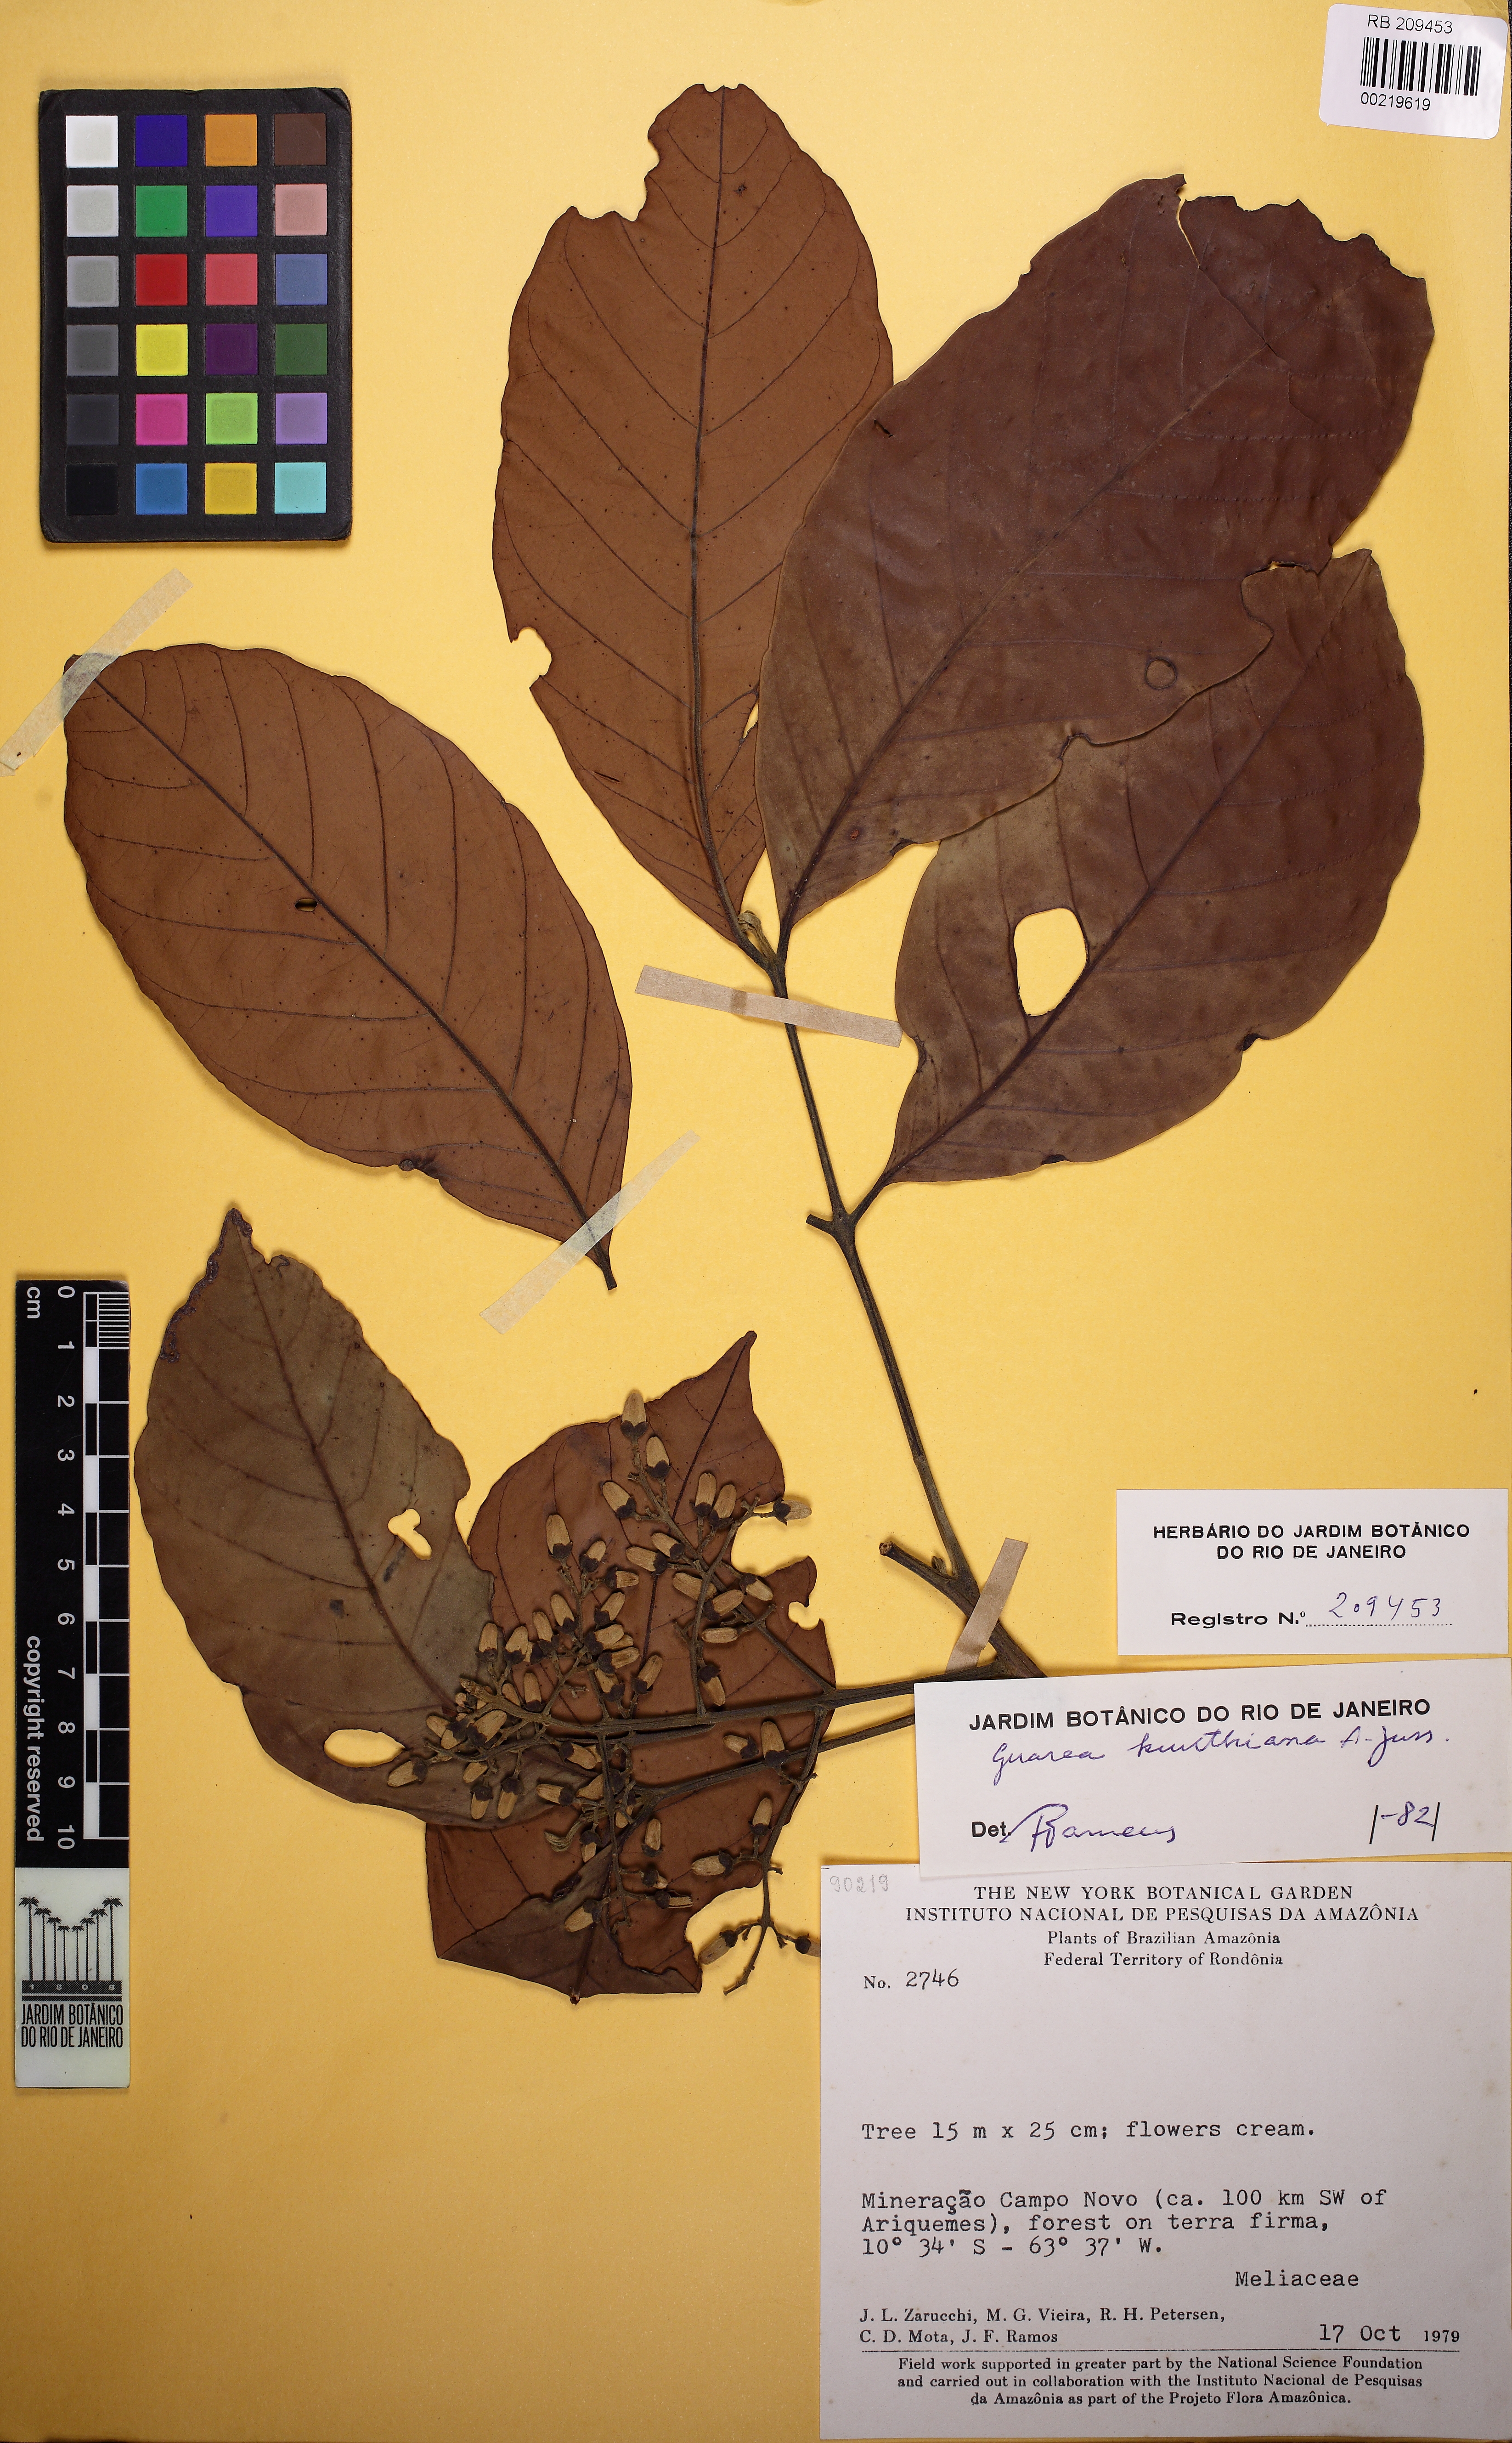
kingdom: Plantae
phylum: Tracheophyta
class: Magnoliopsida
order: Sapindales
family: Meliaceae
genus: Guarea
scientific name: Guarea kunthiana
